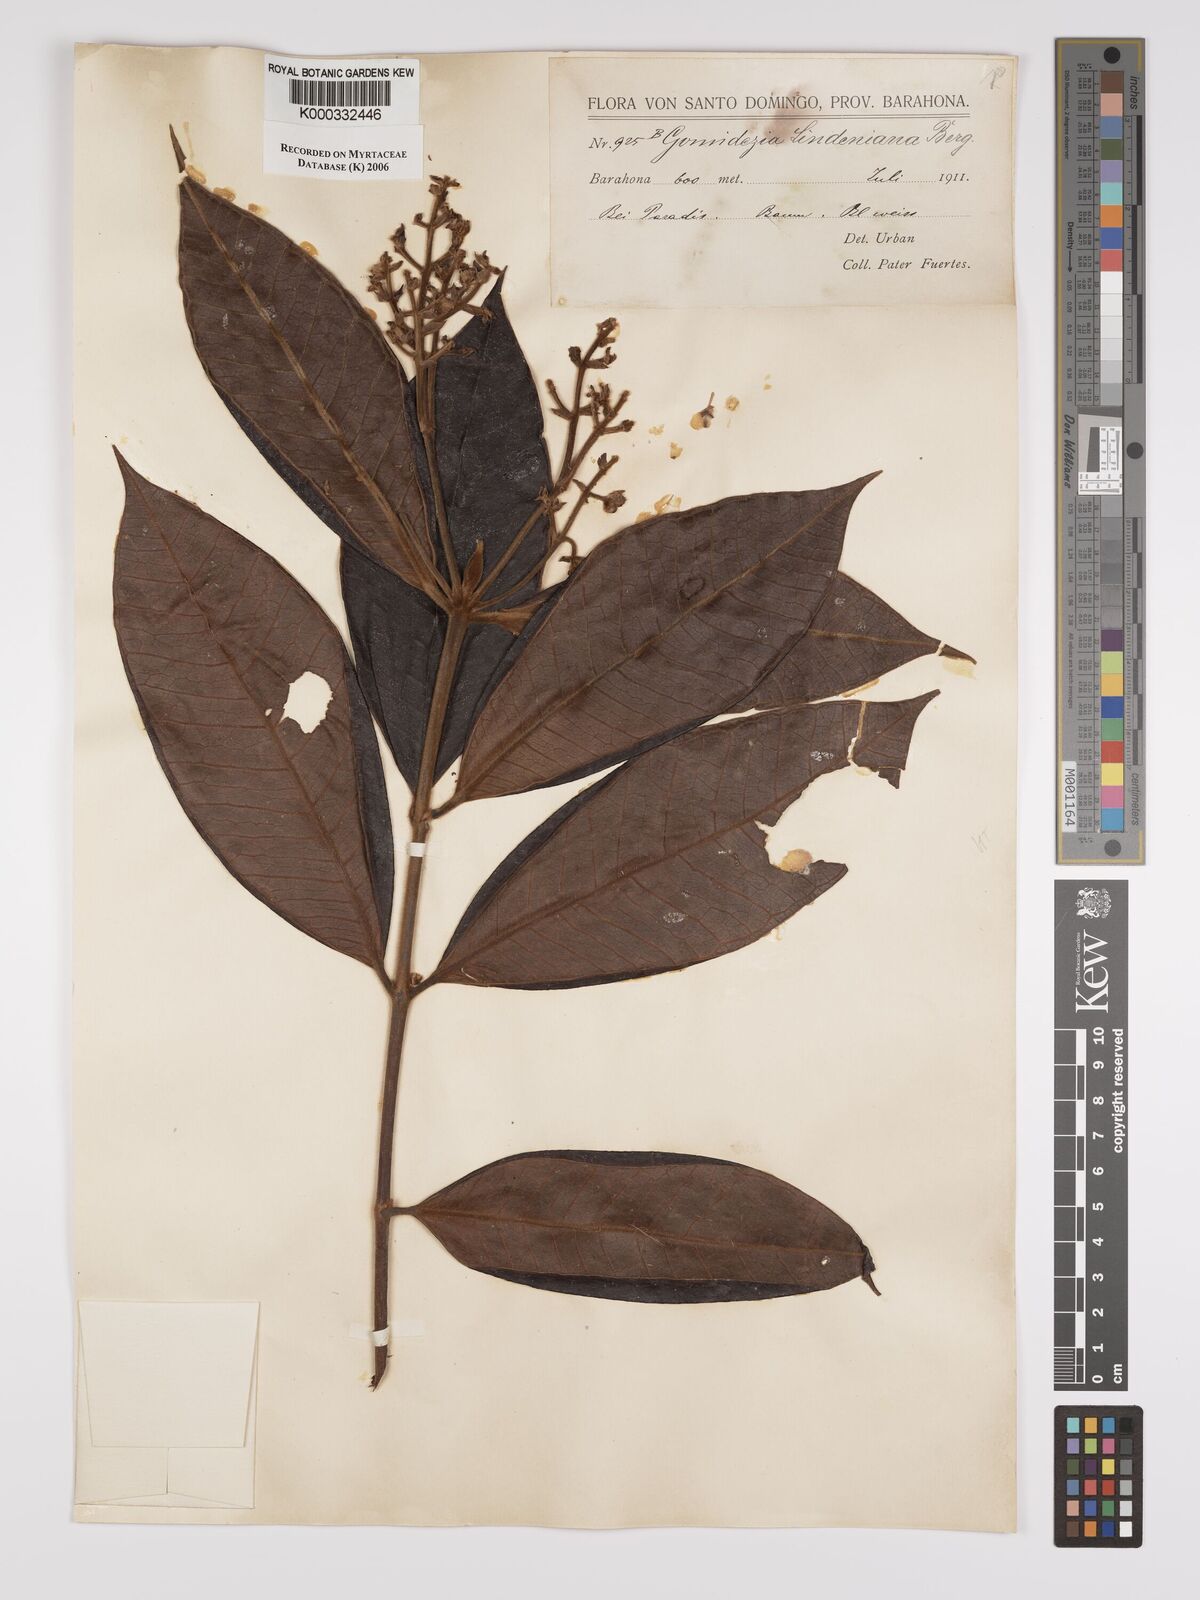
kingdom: Plantae
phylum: Tracheophyta
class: Magnoliopsida
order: Myrtales
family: Myrtaceae
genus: Myrcia
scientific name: Myrcia fenzliana
